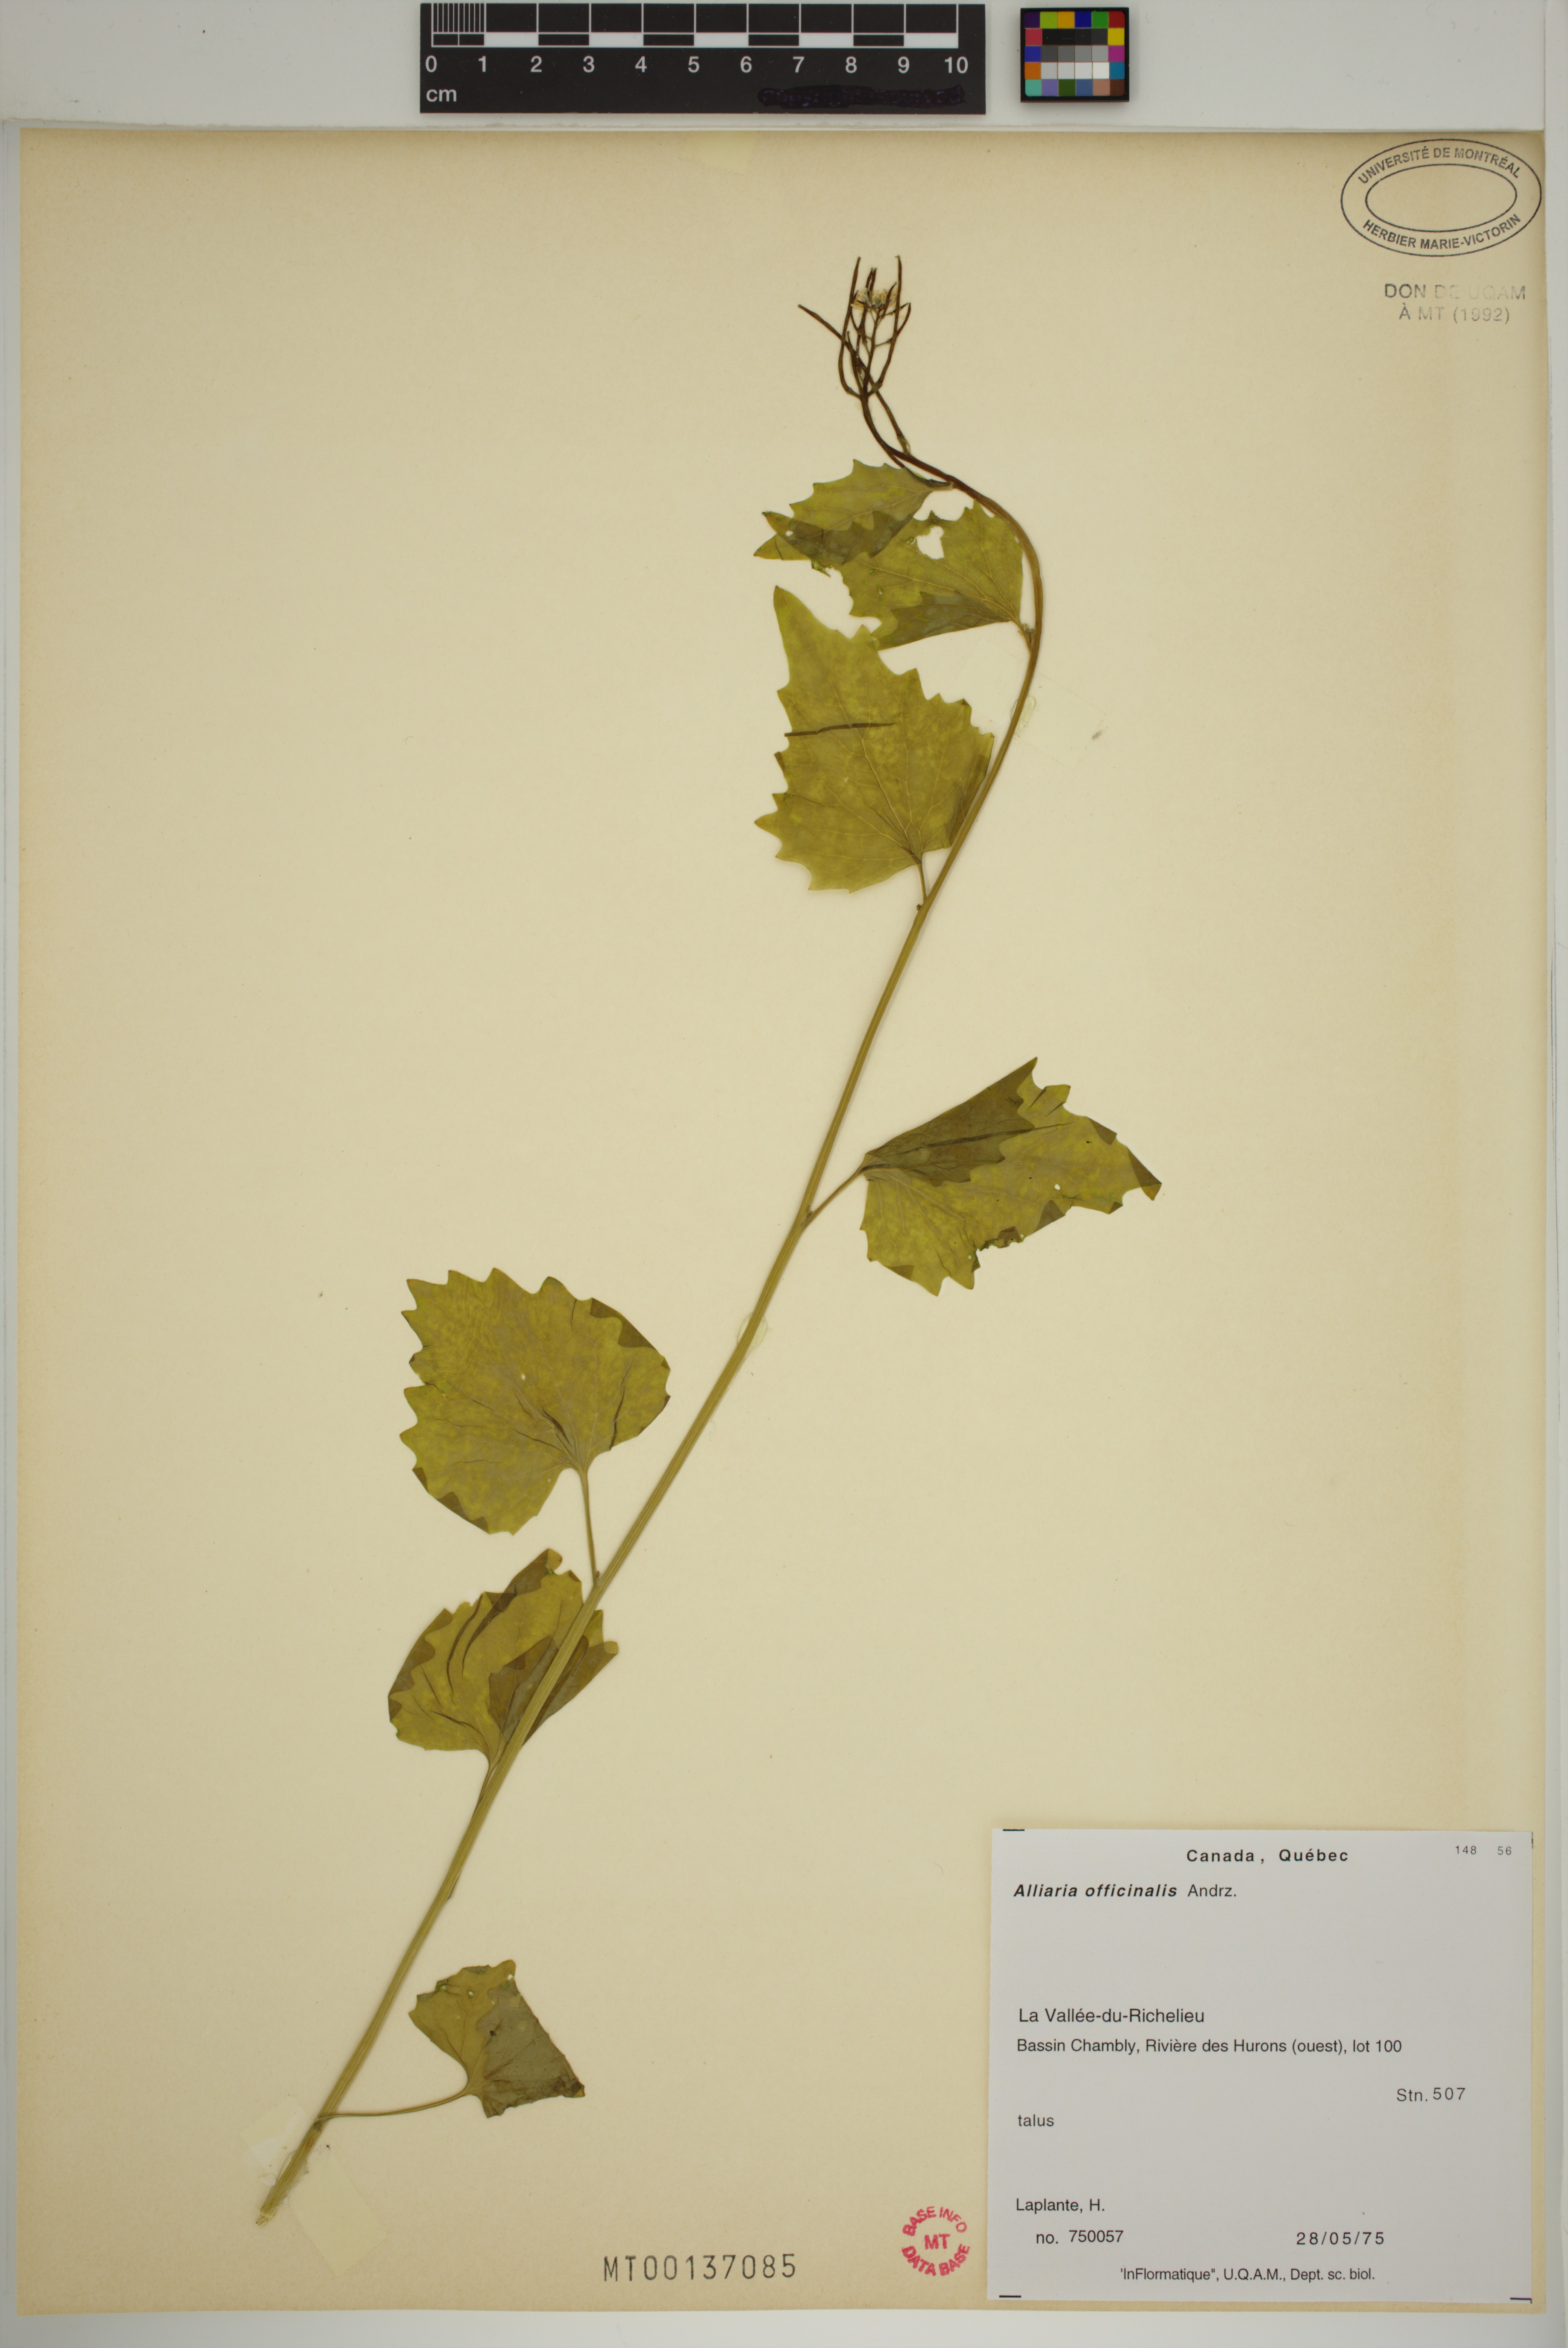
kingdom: Plantae
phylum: Tracheophyta
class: Magnoliopsida
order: Brassicales
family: Brassicaceae
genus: Alliaria
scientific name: Alliaria petiolata
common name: Garlic mustard
